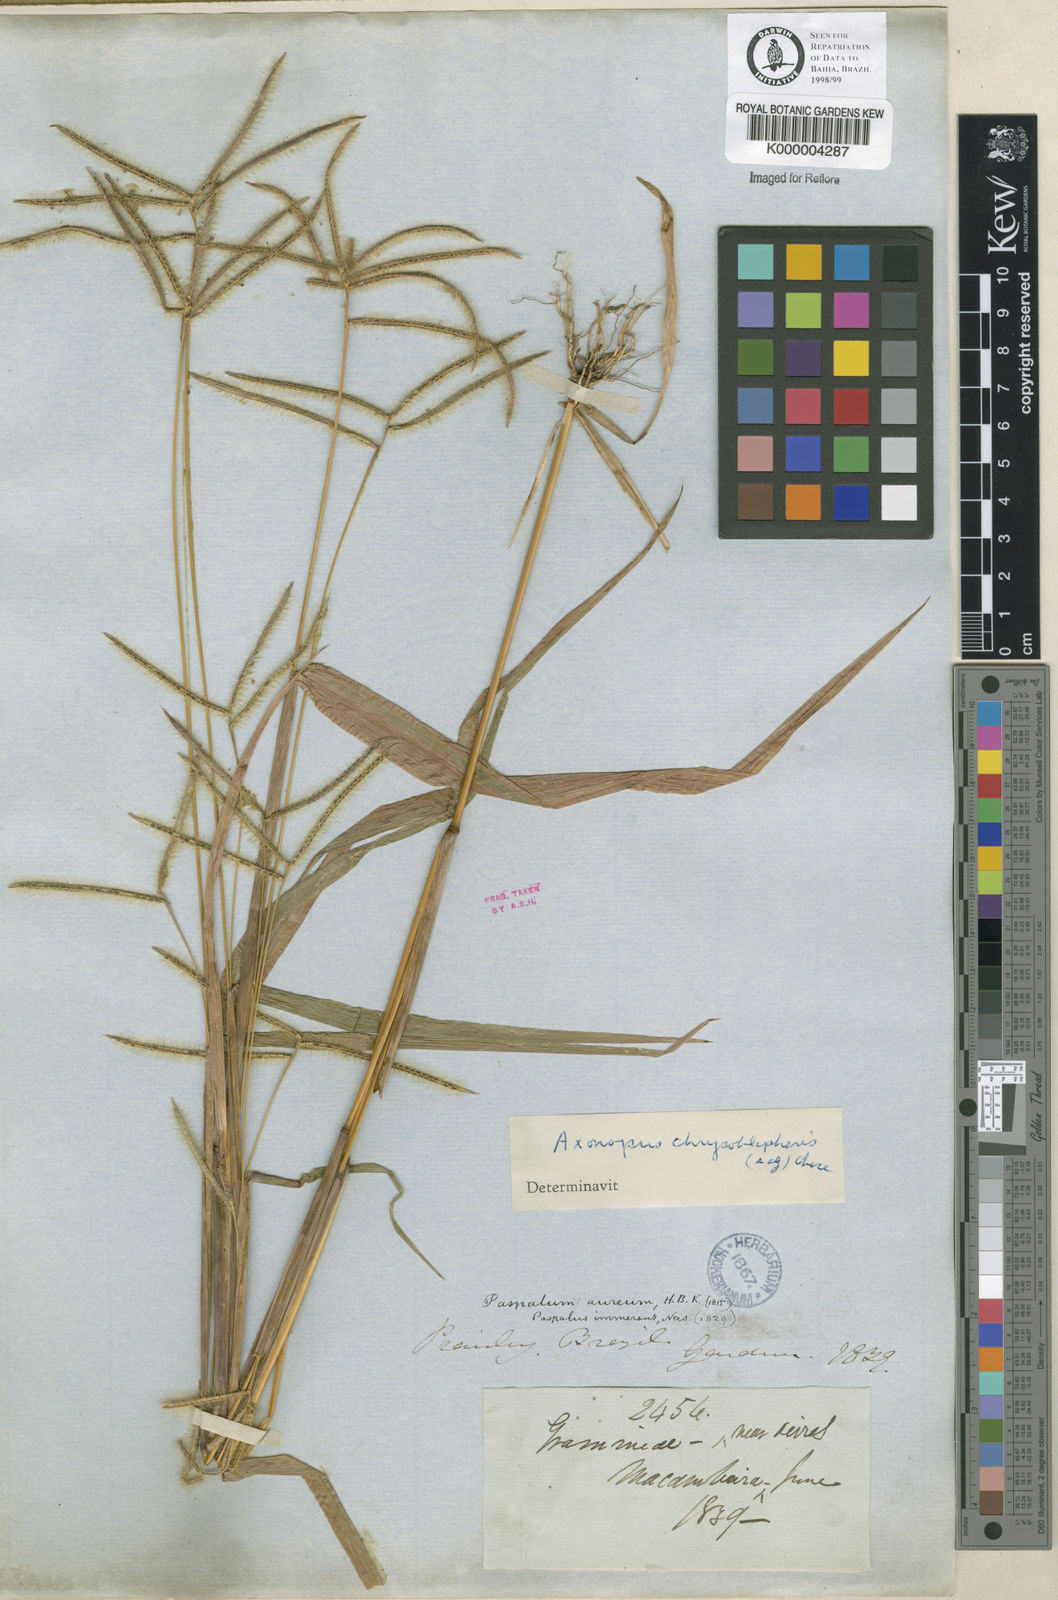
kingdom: Plantae
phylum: Tracheophyta
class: Liliopsida
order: Poales
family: Poaceae
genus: Axonopus
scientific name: Axonopus chrysoblepharis
